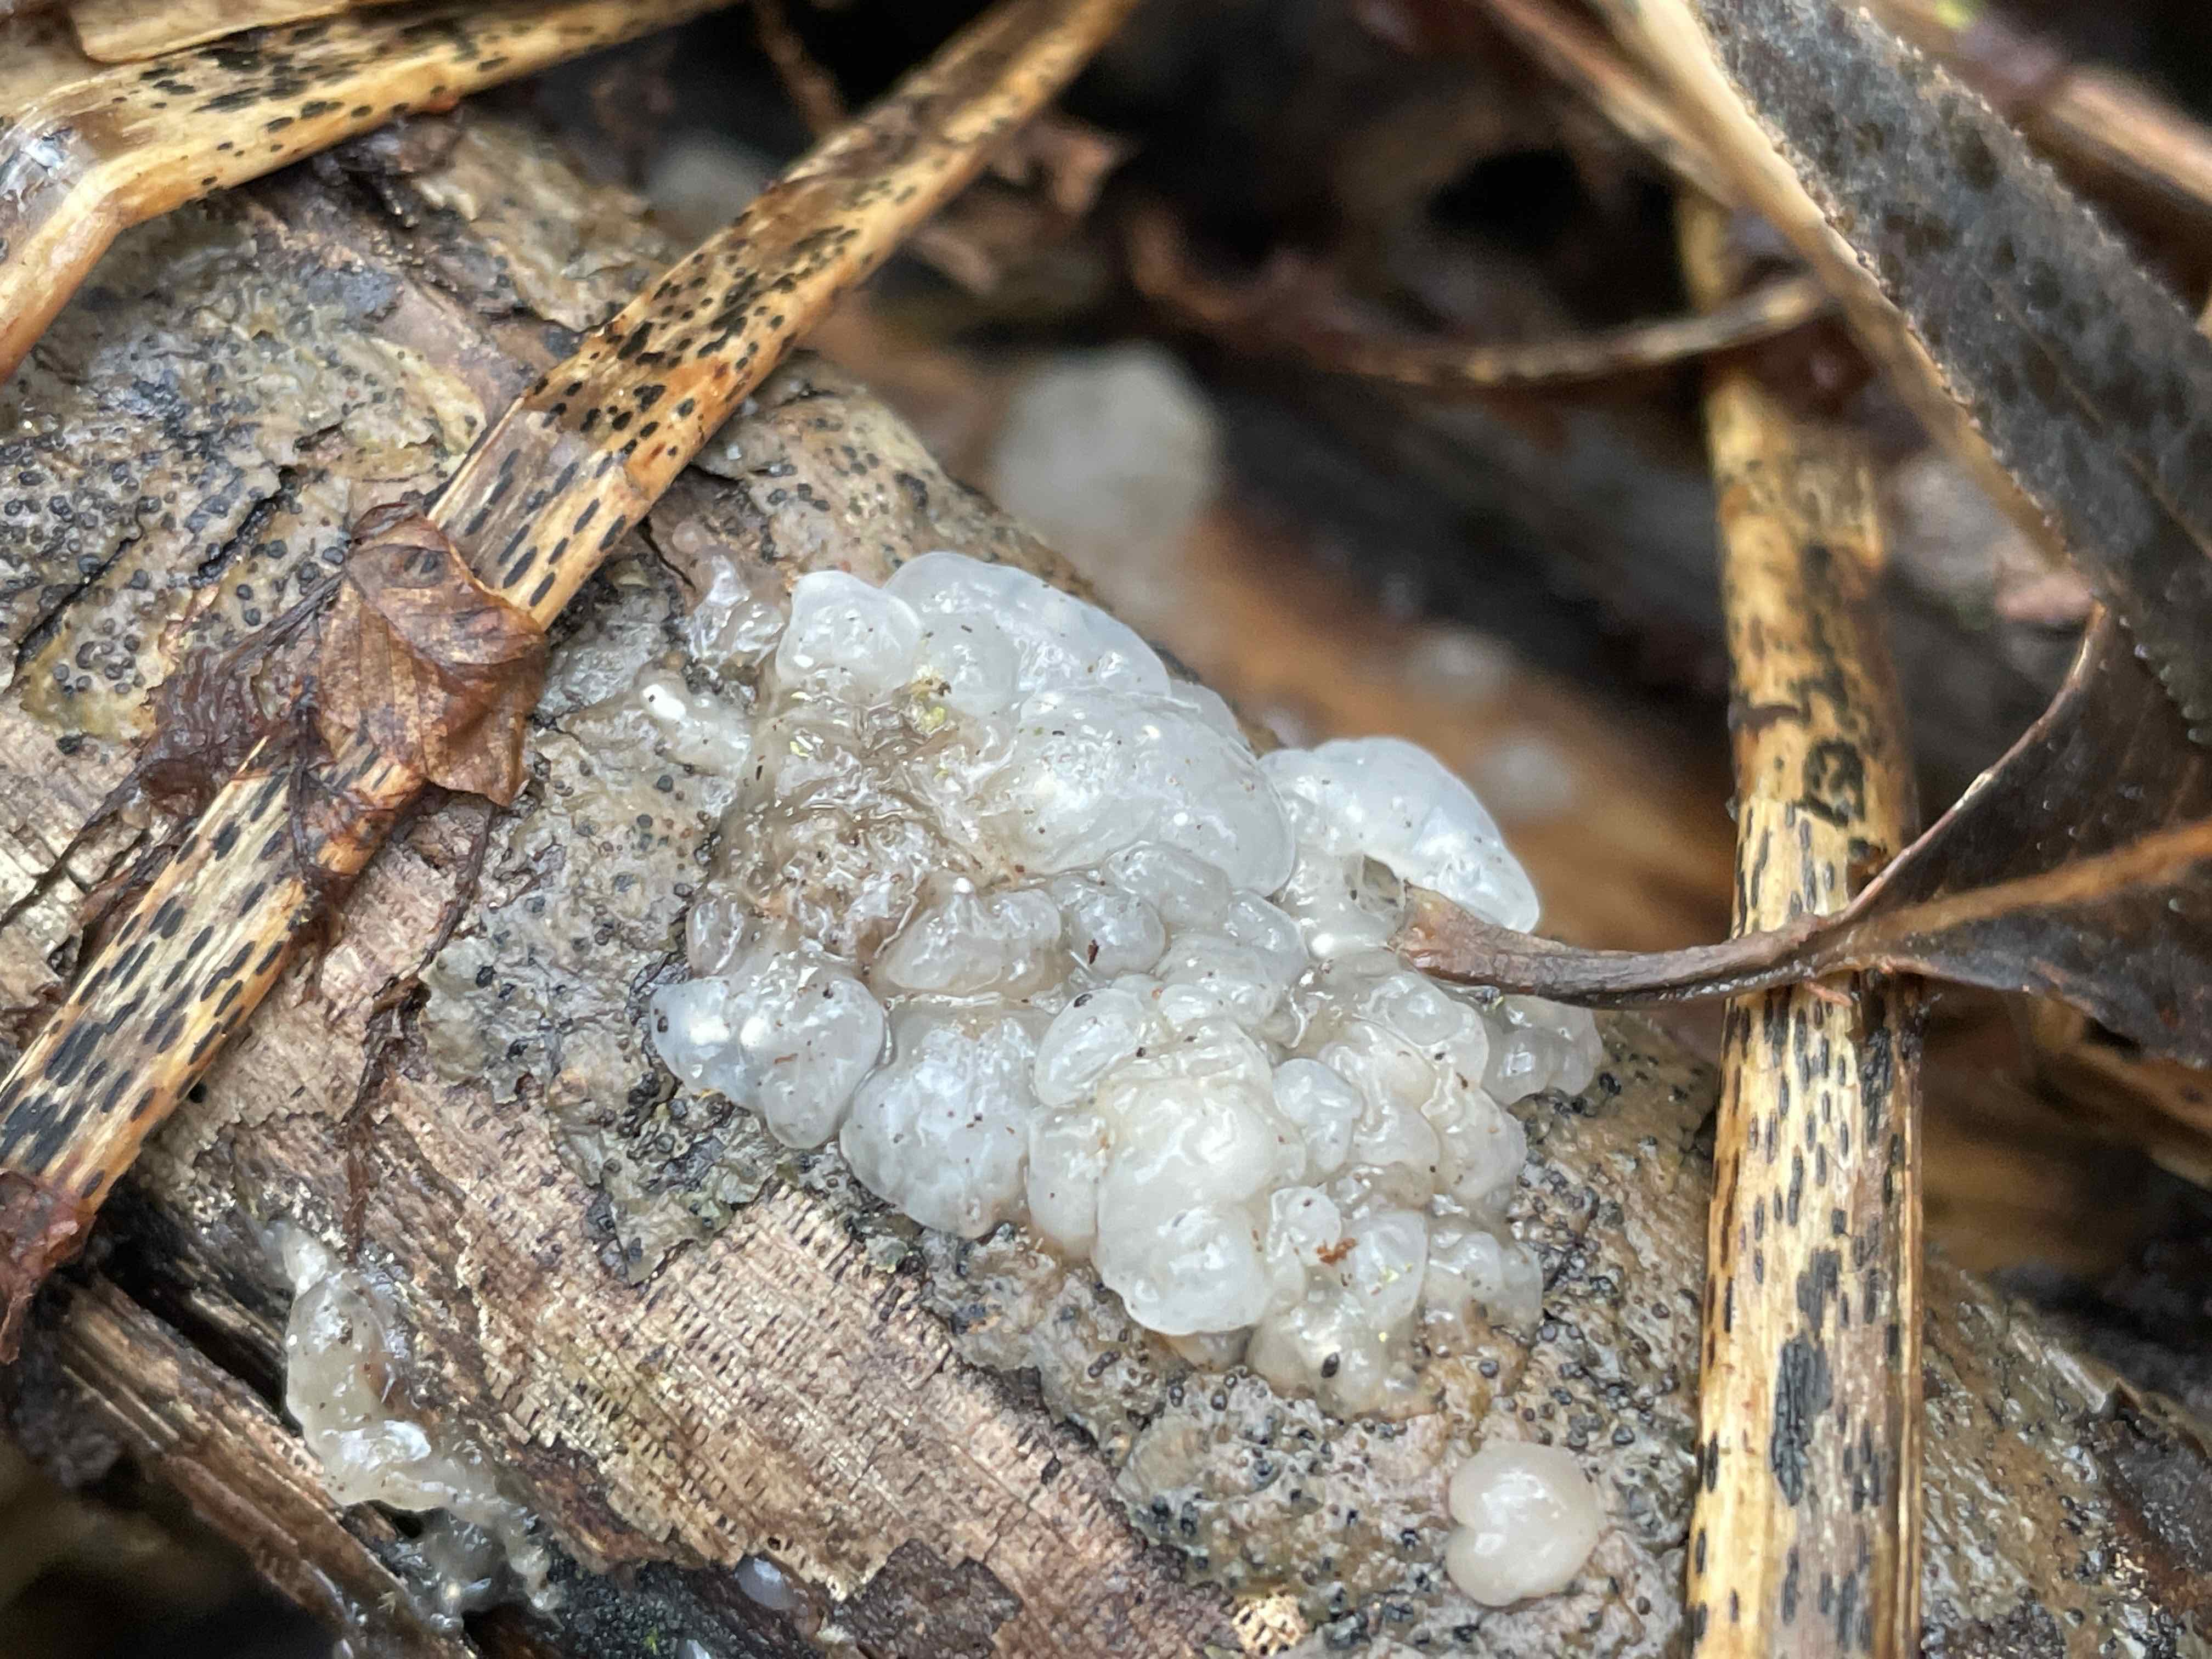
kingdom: Fungi
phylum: Basidiomycota
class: Agaricomycetes
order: Auriculariales
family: Hyaloriaceae
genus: Myxarium
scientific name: Myxarium nucleatum
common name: klar bævretop
